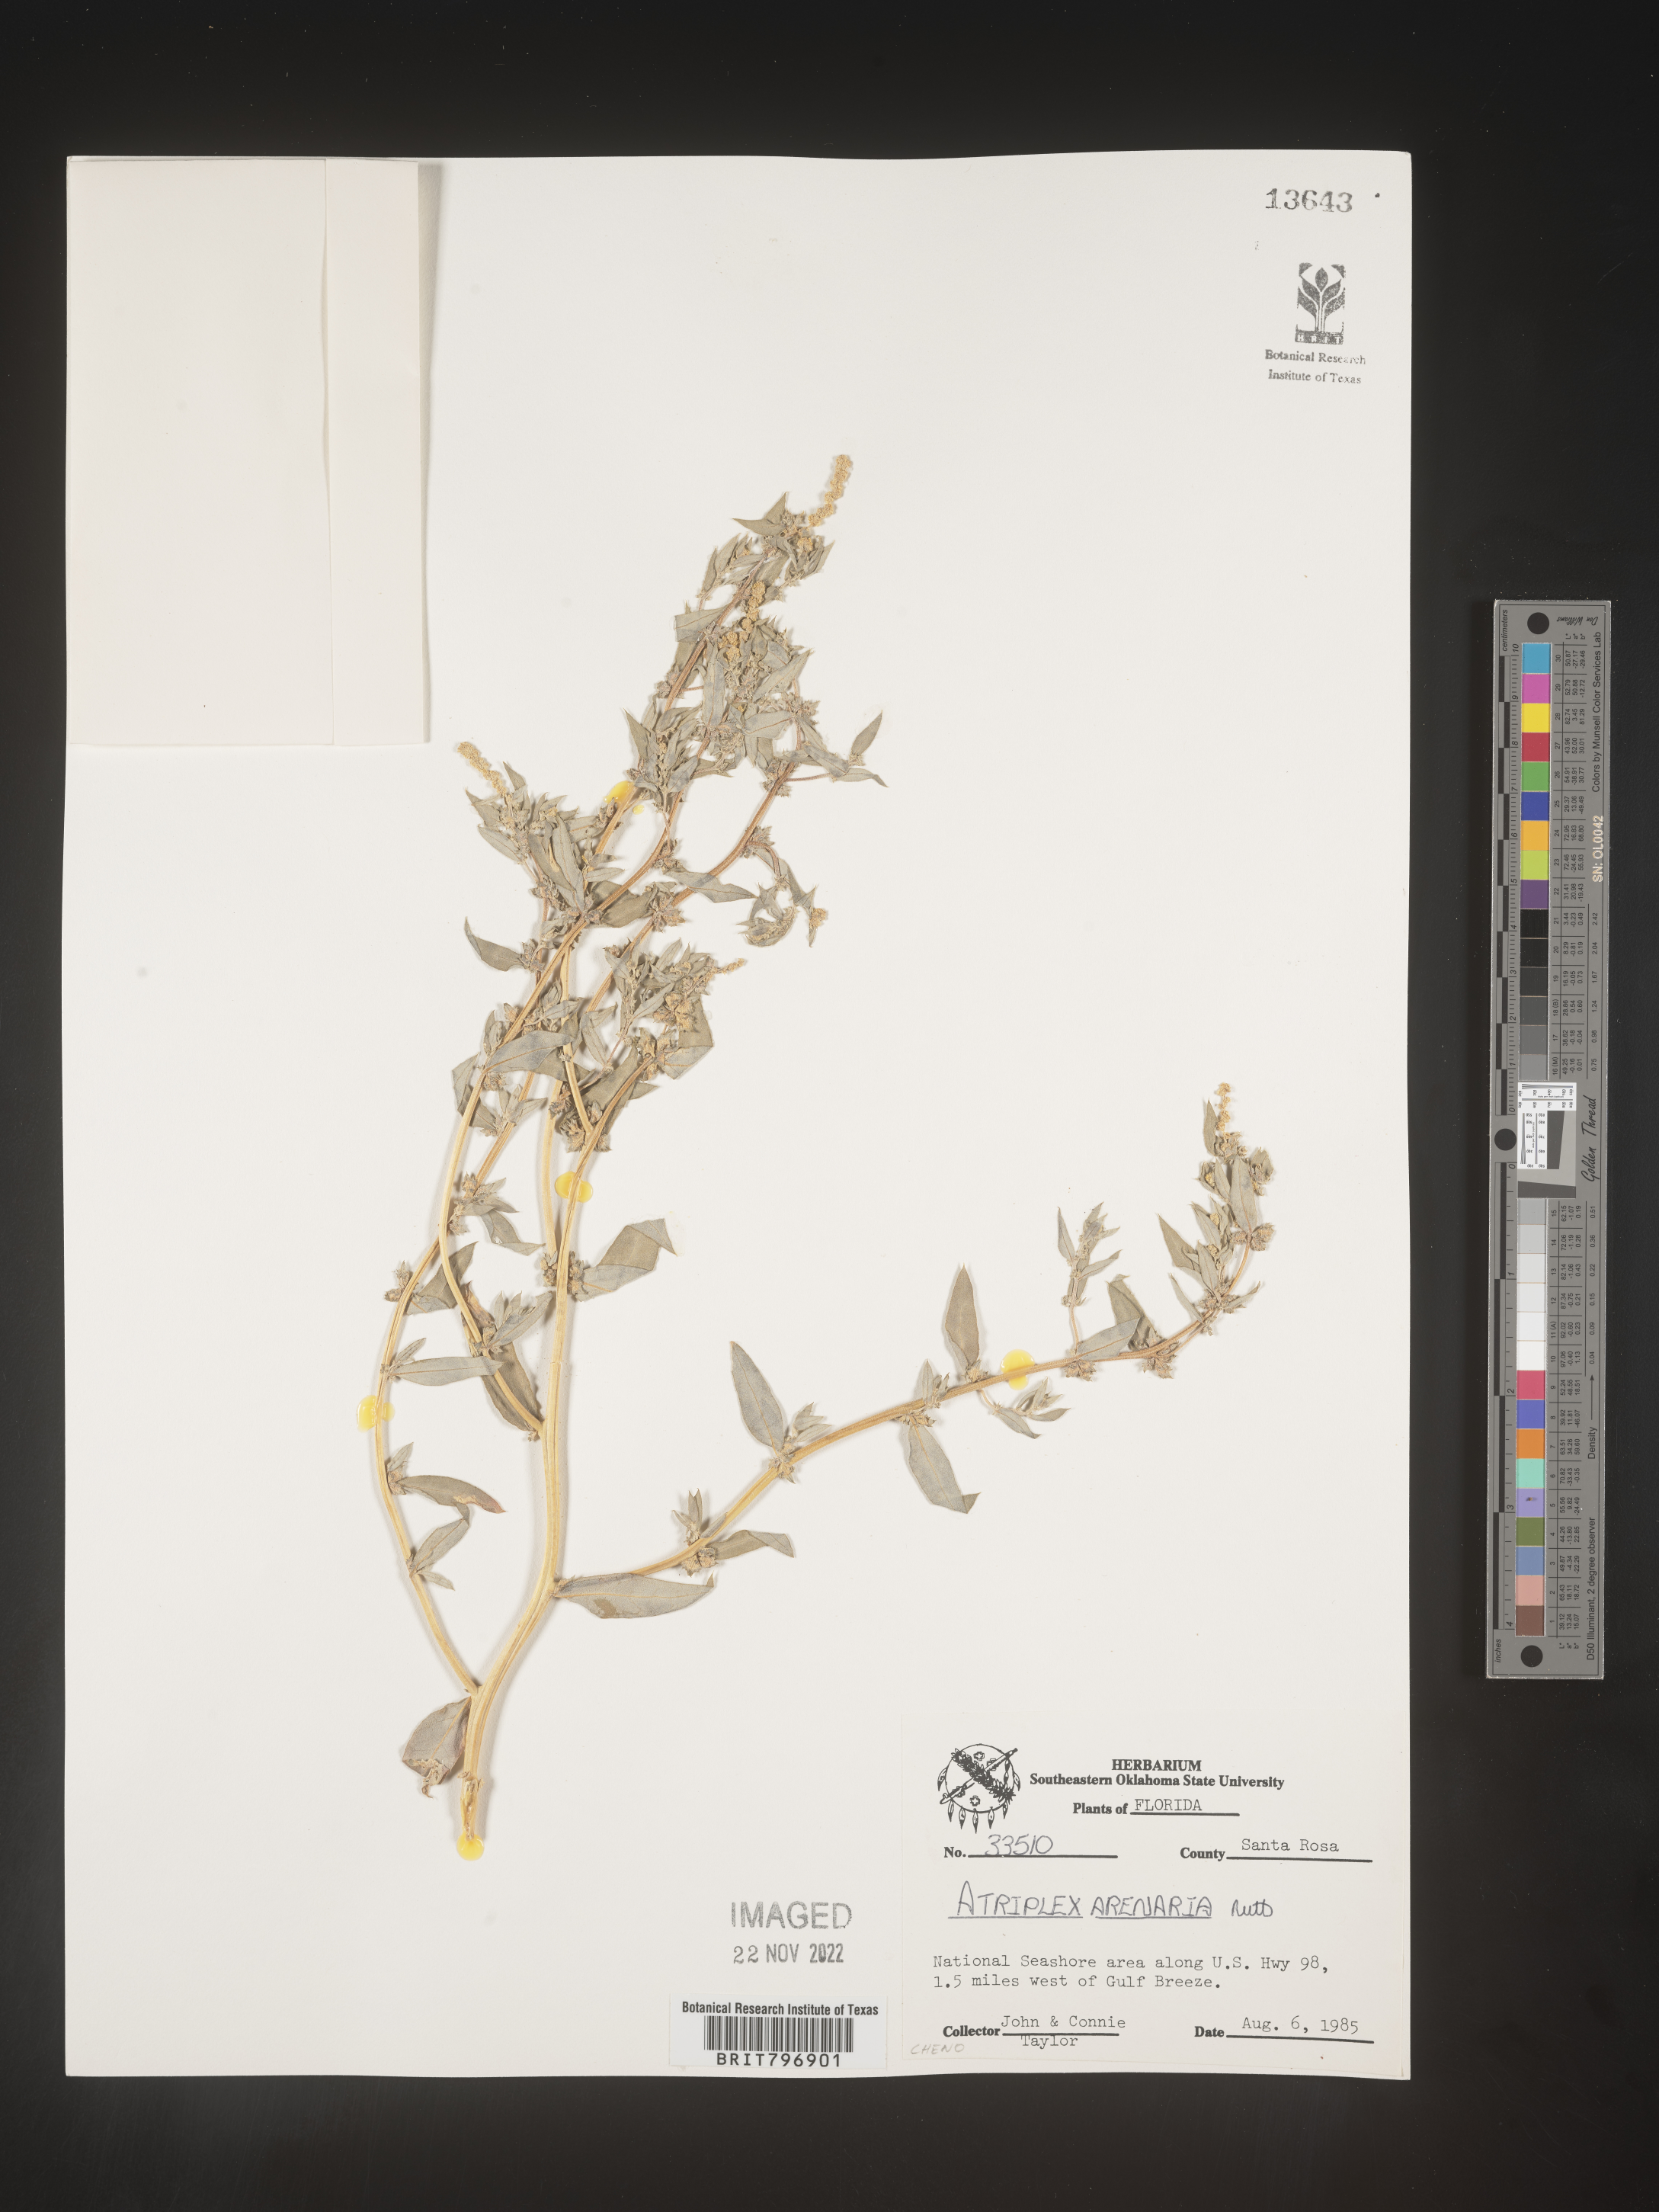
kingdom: Plantae
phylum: Tracheophyta
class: Magnoliopsida
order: Caryophyllales
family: Amaranthaceae
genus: Atriplex
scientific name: Atriplex mucronata
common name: Quelite
